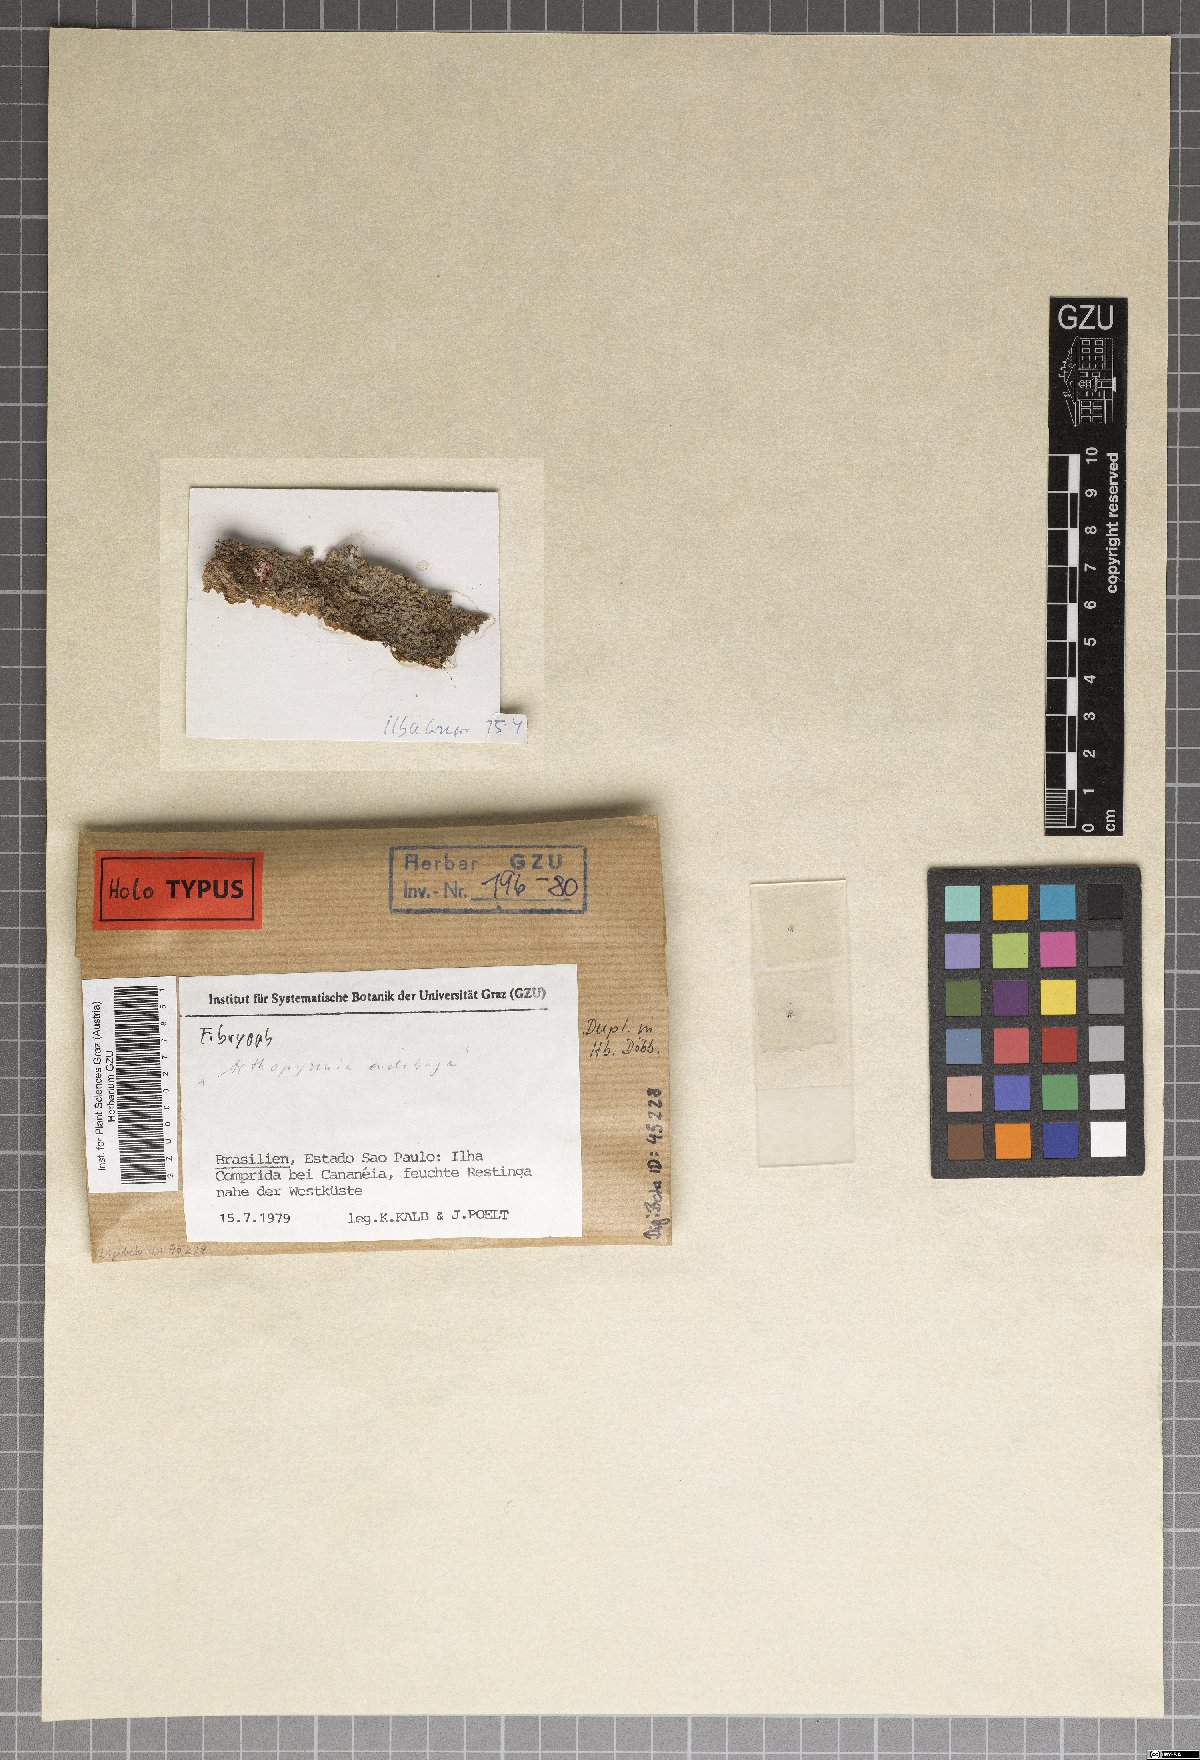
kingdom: Fungi
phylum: Ascomycota
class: Dothideomycetes
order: Monoblastiales
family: Monoblastiaceae
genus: Acrocordia
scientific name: Acrocordia endobrya
